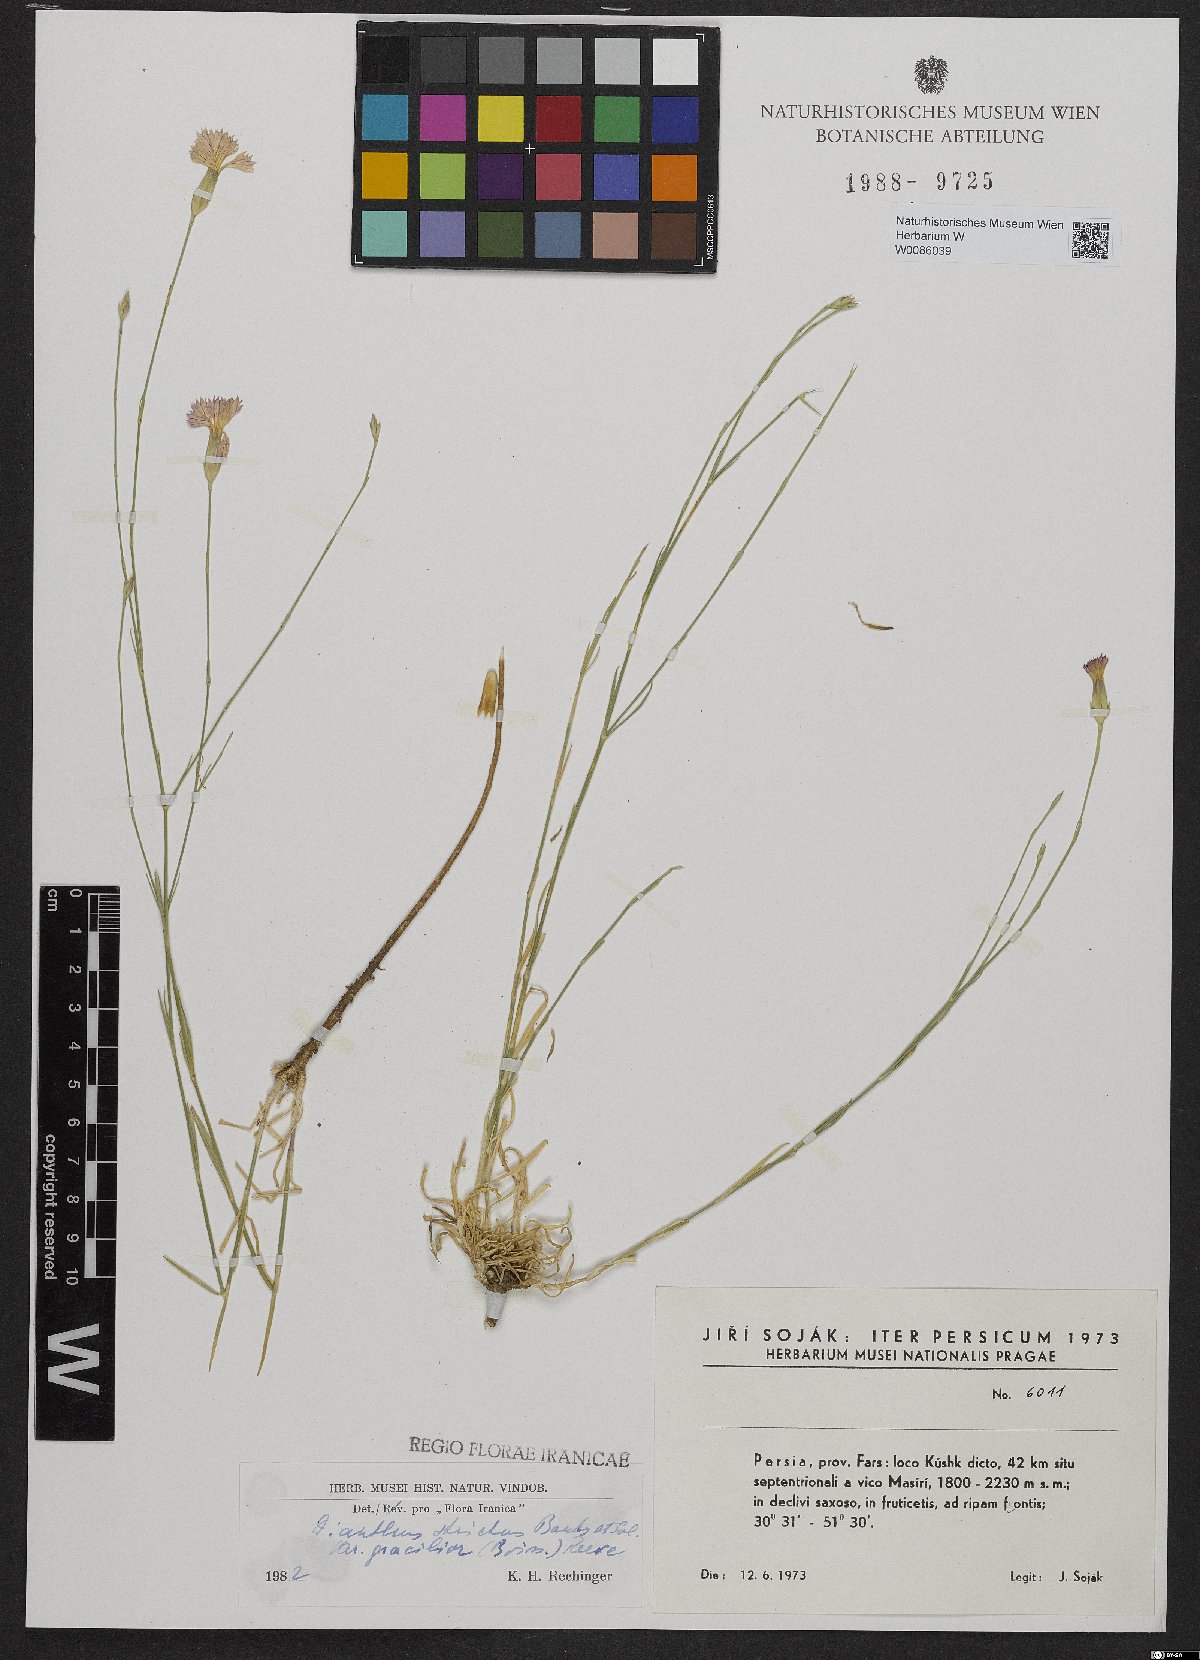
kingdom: Plantae
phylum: Tracheophyta
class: Magnoliopsida
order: Caryophyllales
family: Caryophyllaceae
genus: Dianthus
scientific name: Dianthus strictus
